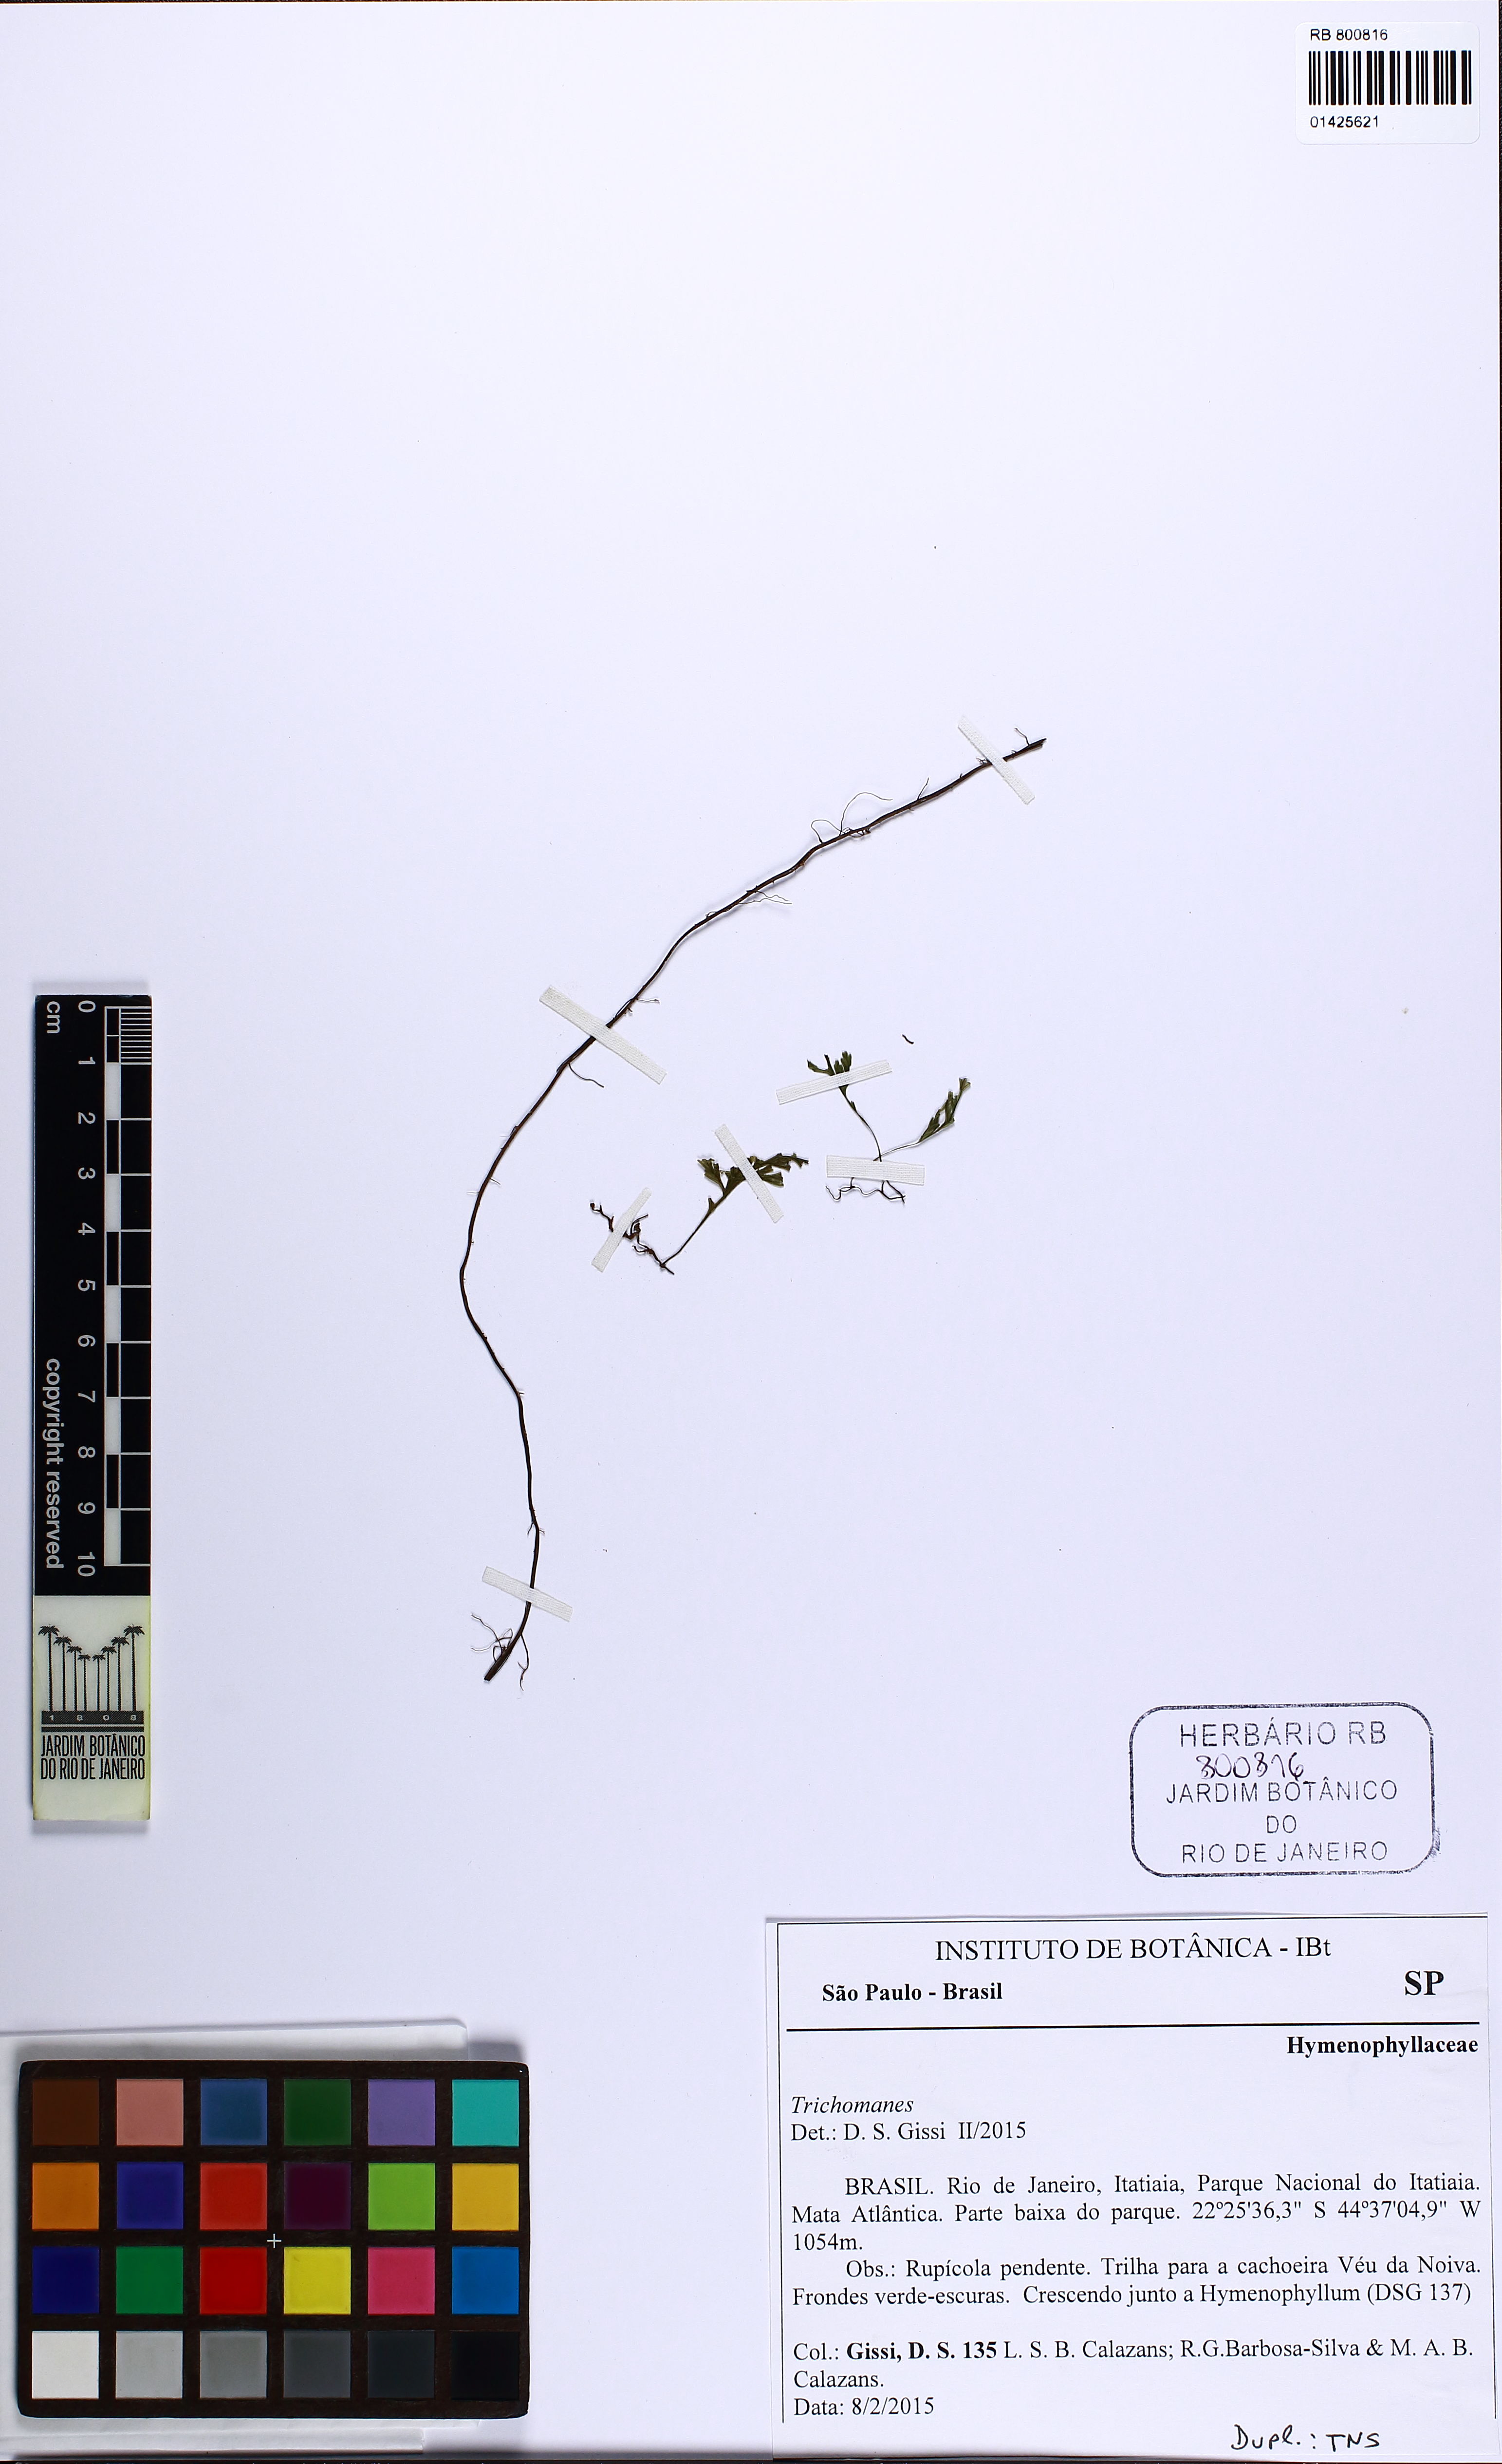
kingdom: Plantae
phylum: Tracheophyta
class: Polypodiopsida
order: Hymenophyllales
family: Hymenophyllaceae
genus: Trichomanes
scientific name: Trichomanes
